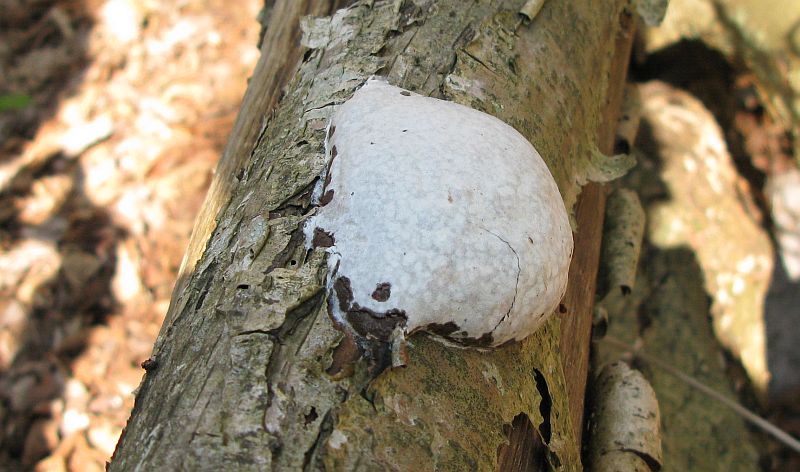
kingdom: Protozoa
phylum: Mycetozoa
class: Myxomycetes
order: Cribrariales
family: Tubiferaceae
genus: Reticularia
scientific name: Reticularia lycoperdon
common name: skinnende støvpude
